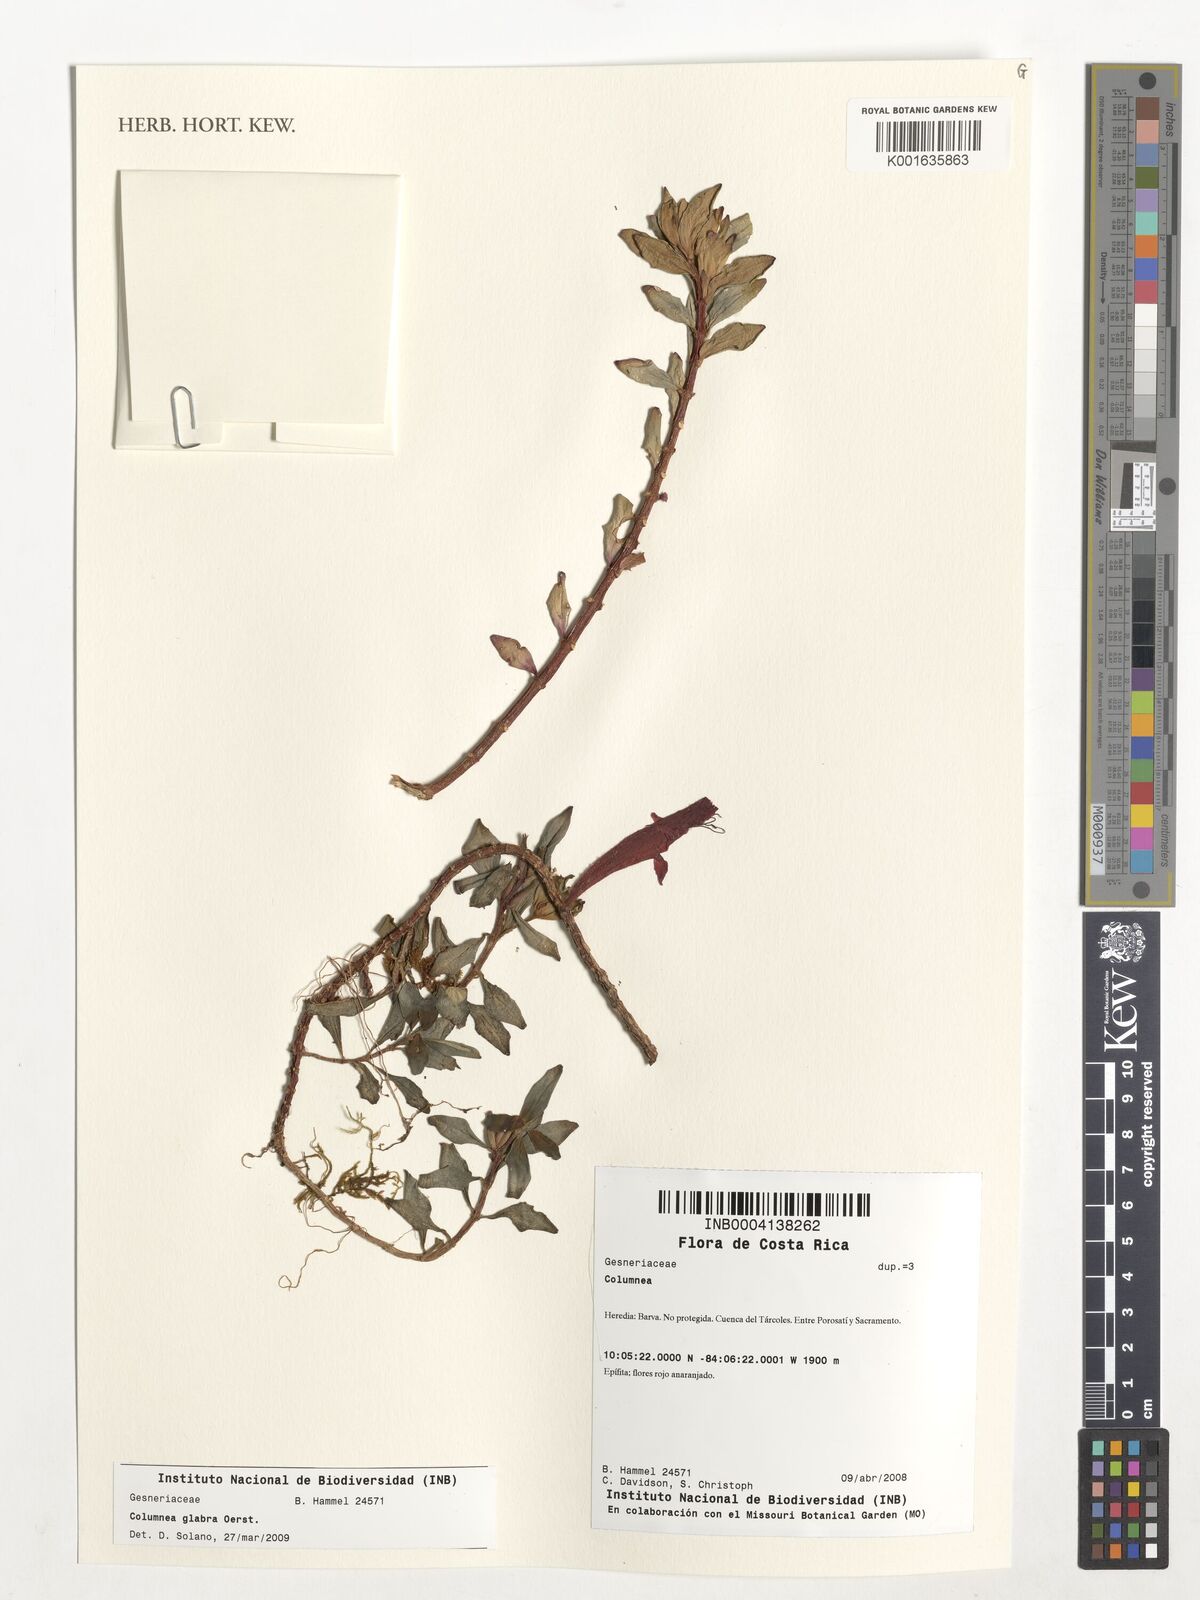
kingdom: Plantae
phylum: Tracheophyta
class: Magnoliopsida
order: Lamiales
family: Gesneriaceae
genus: Columnea
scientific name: Columnea glabra
